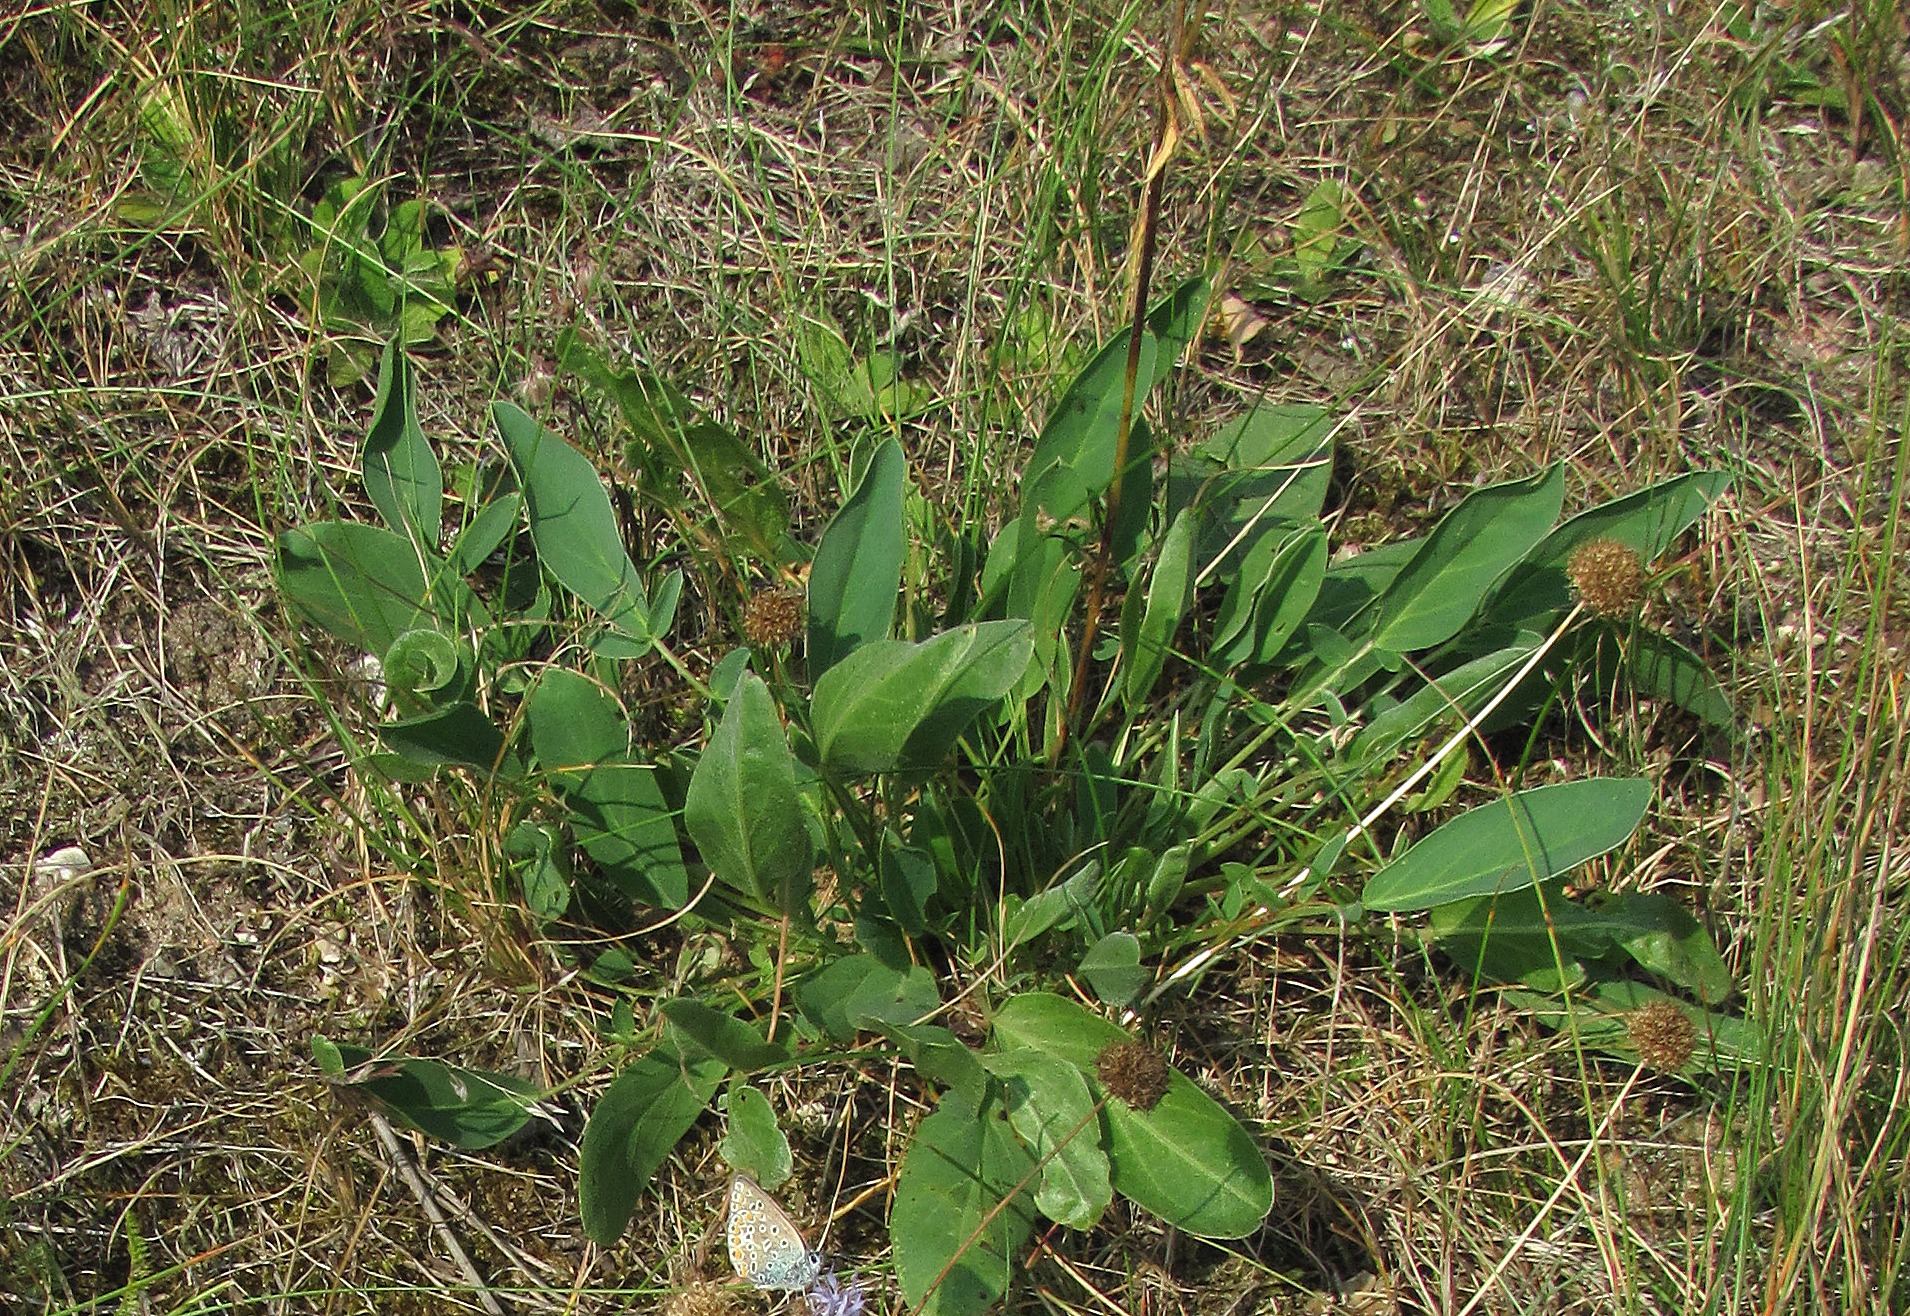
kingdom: Plantae
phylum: Tracheophyta
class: Magnoliopsida
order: Fabales
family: Fabaceae
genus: Anthyllis
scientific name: Anthyllis vulneraria
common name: Rundbælg
